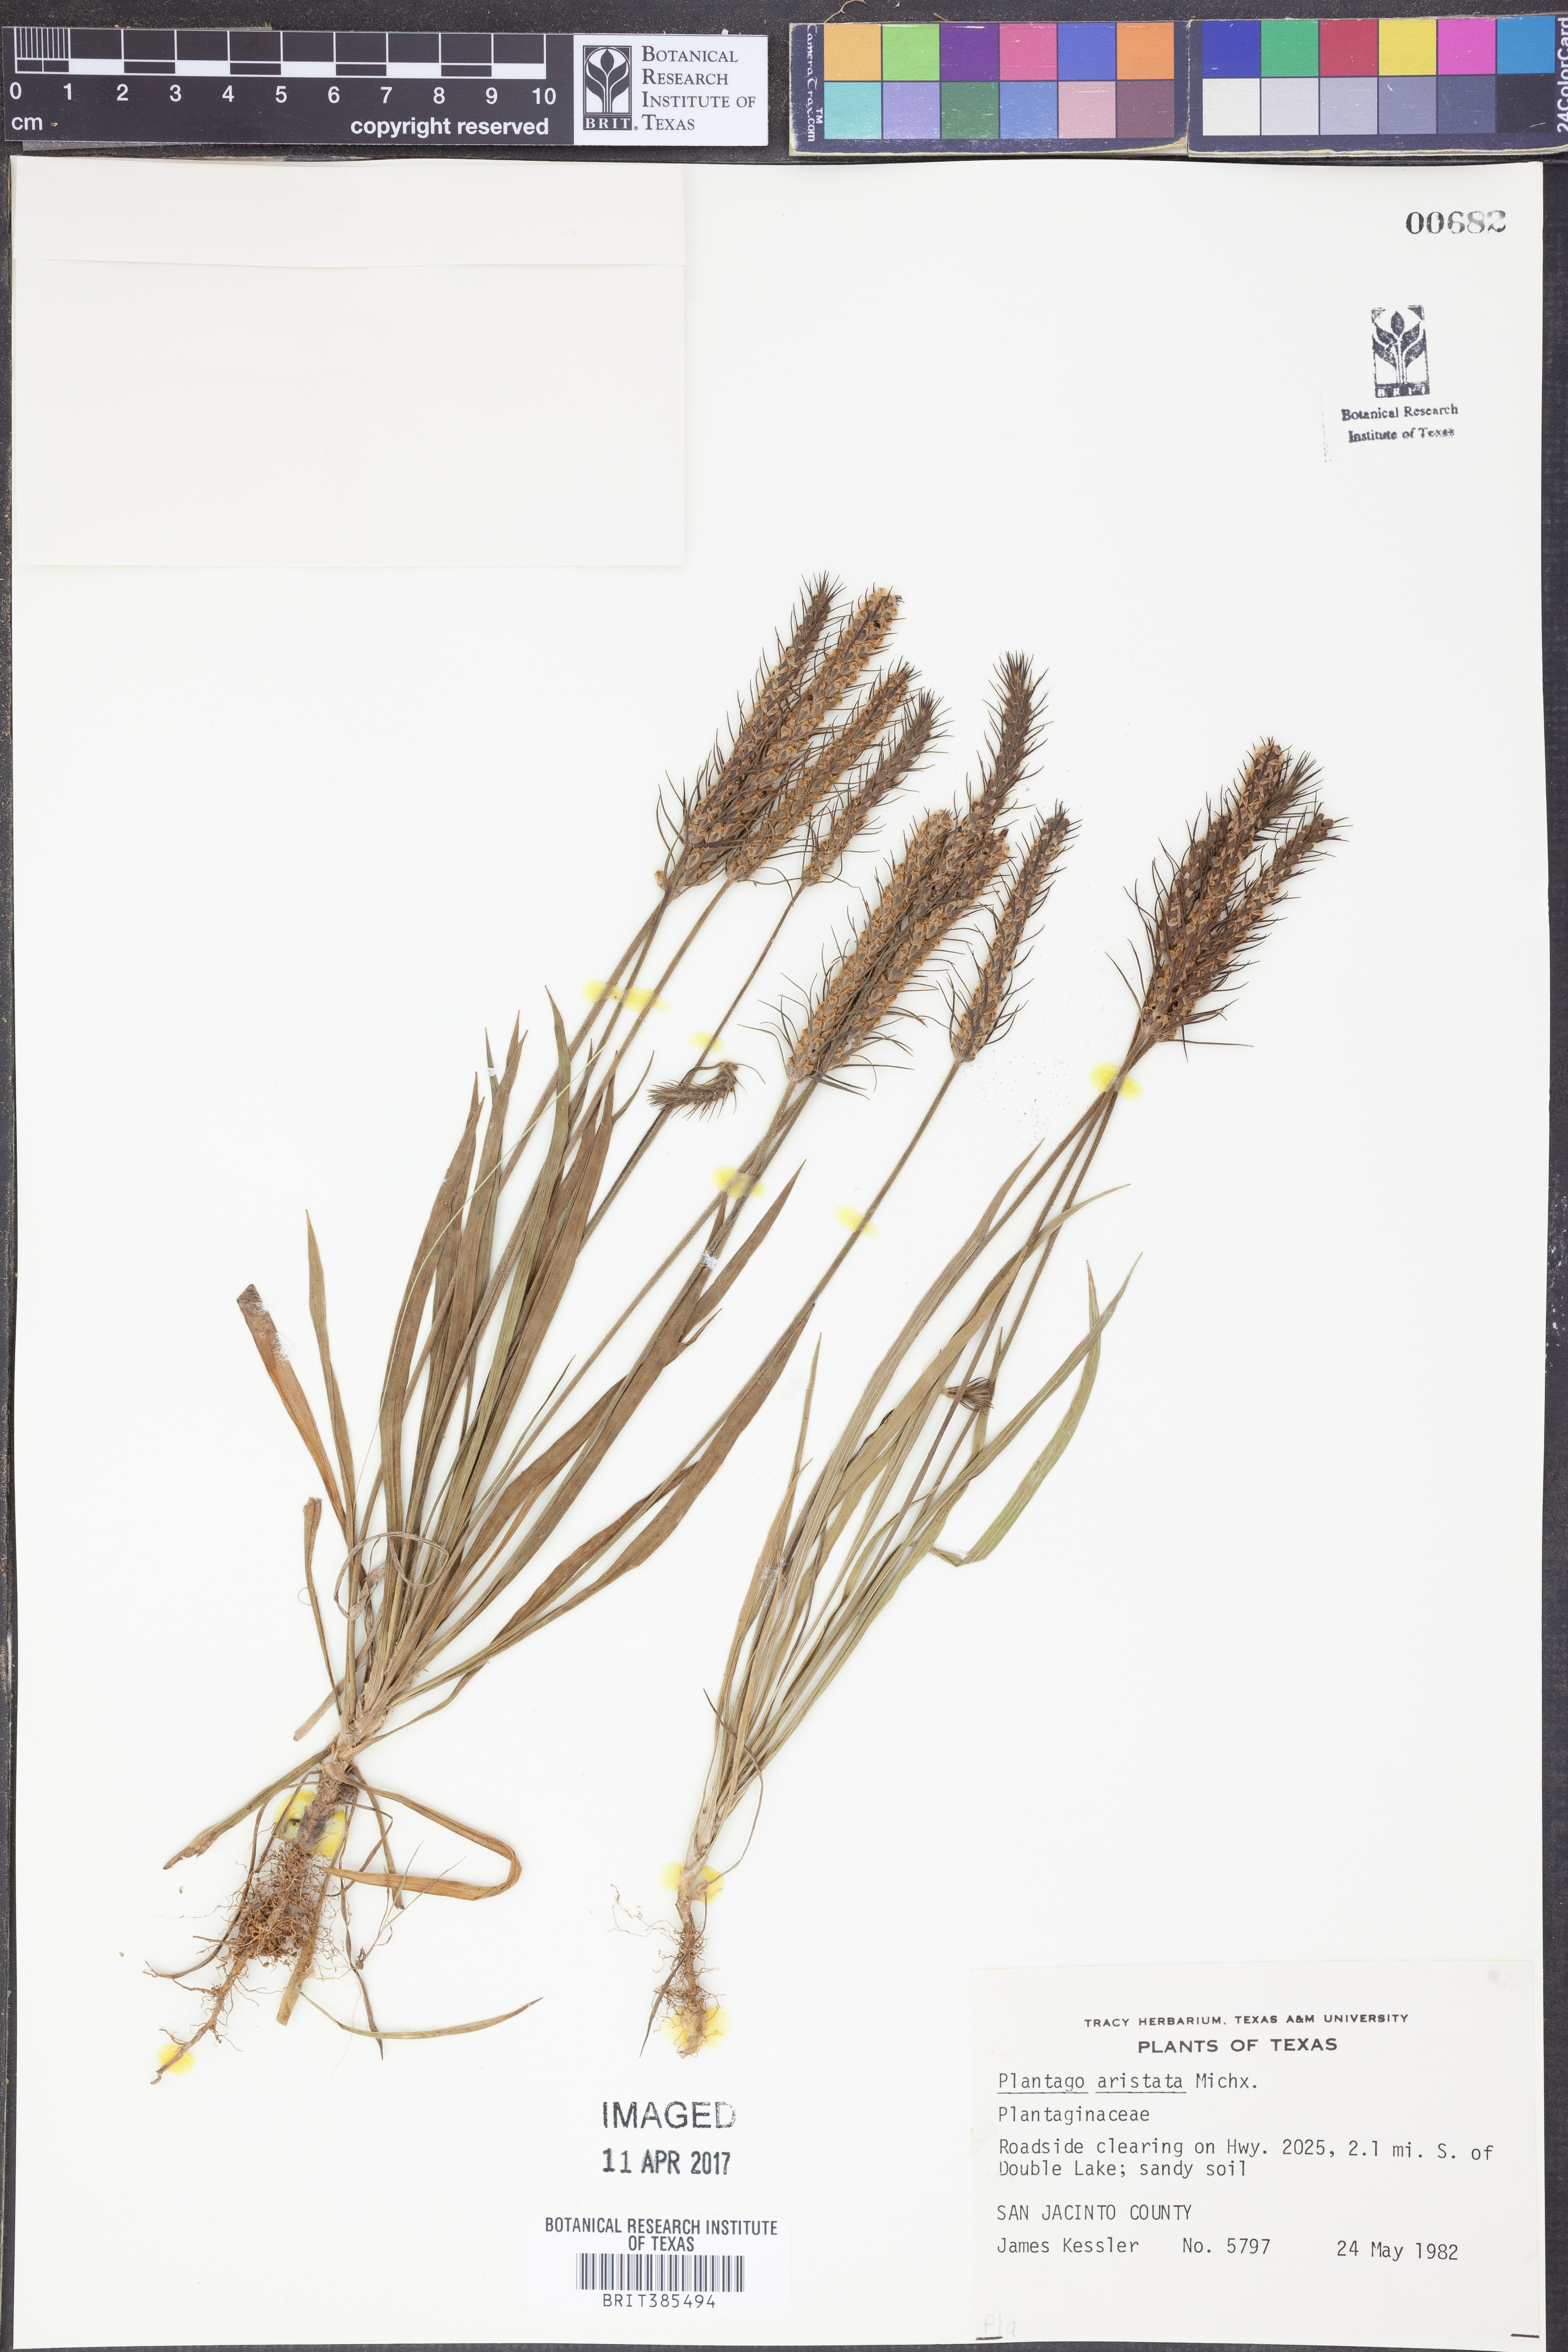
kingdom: Plantae
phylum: Tracheophyta
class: Magnoliopsida
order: Lamiales
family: Plantaginaceae
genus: Plantago
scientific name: Plantago aristata
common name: Bracted plantain
